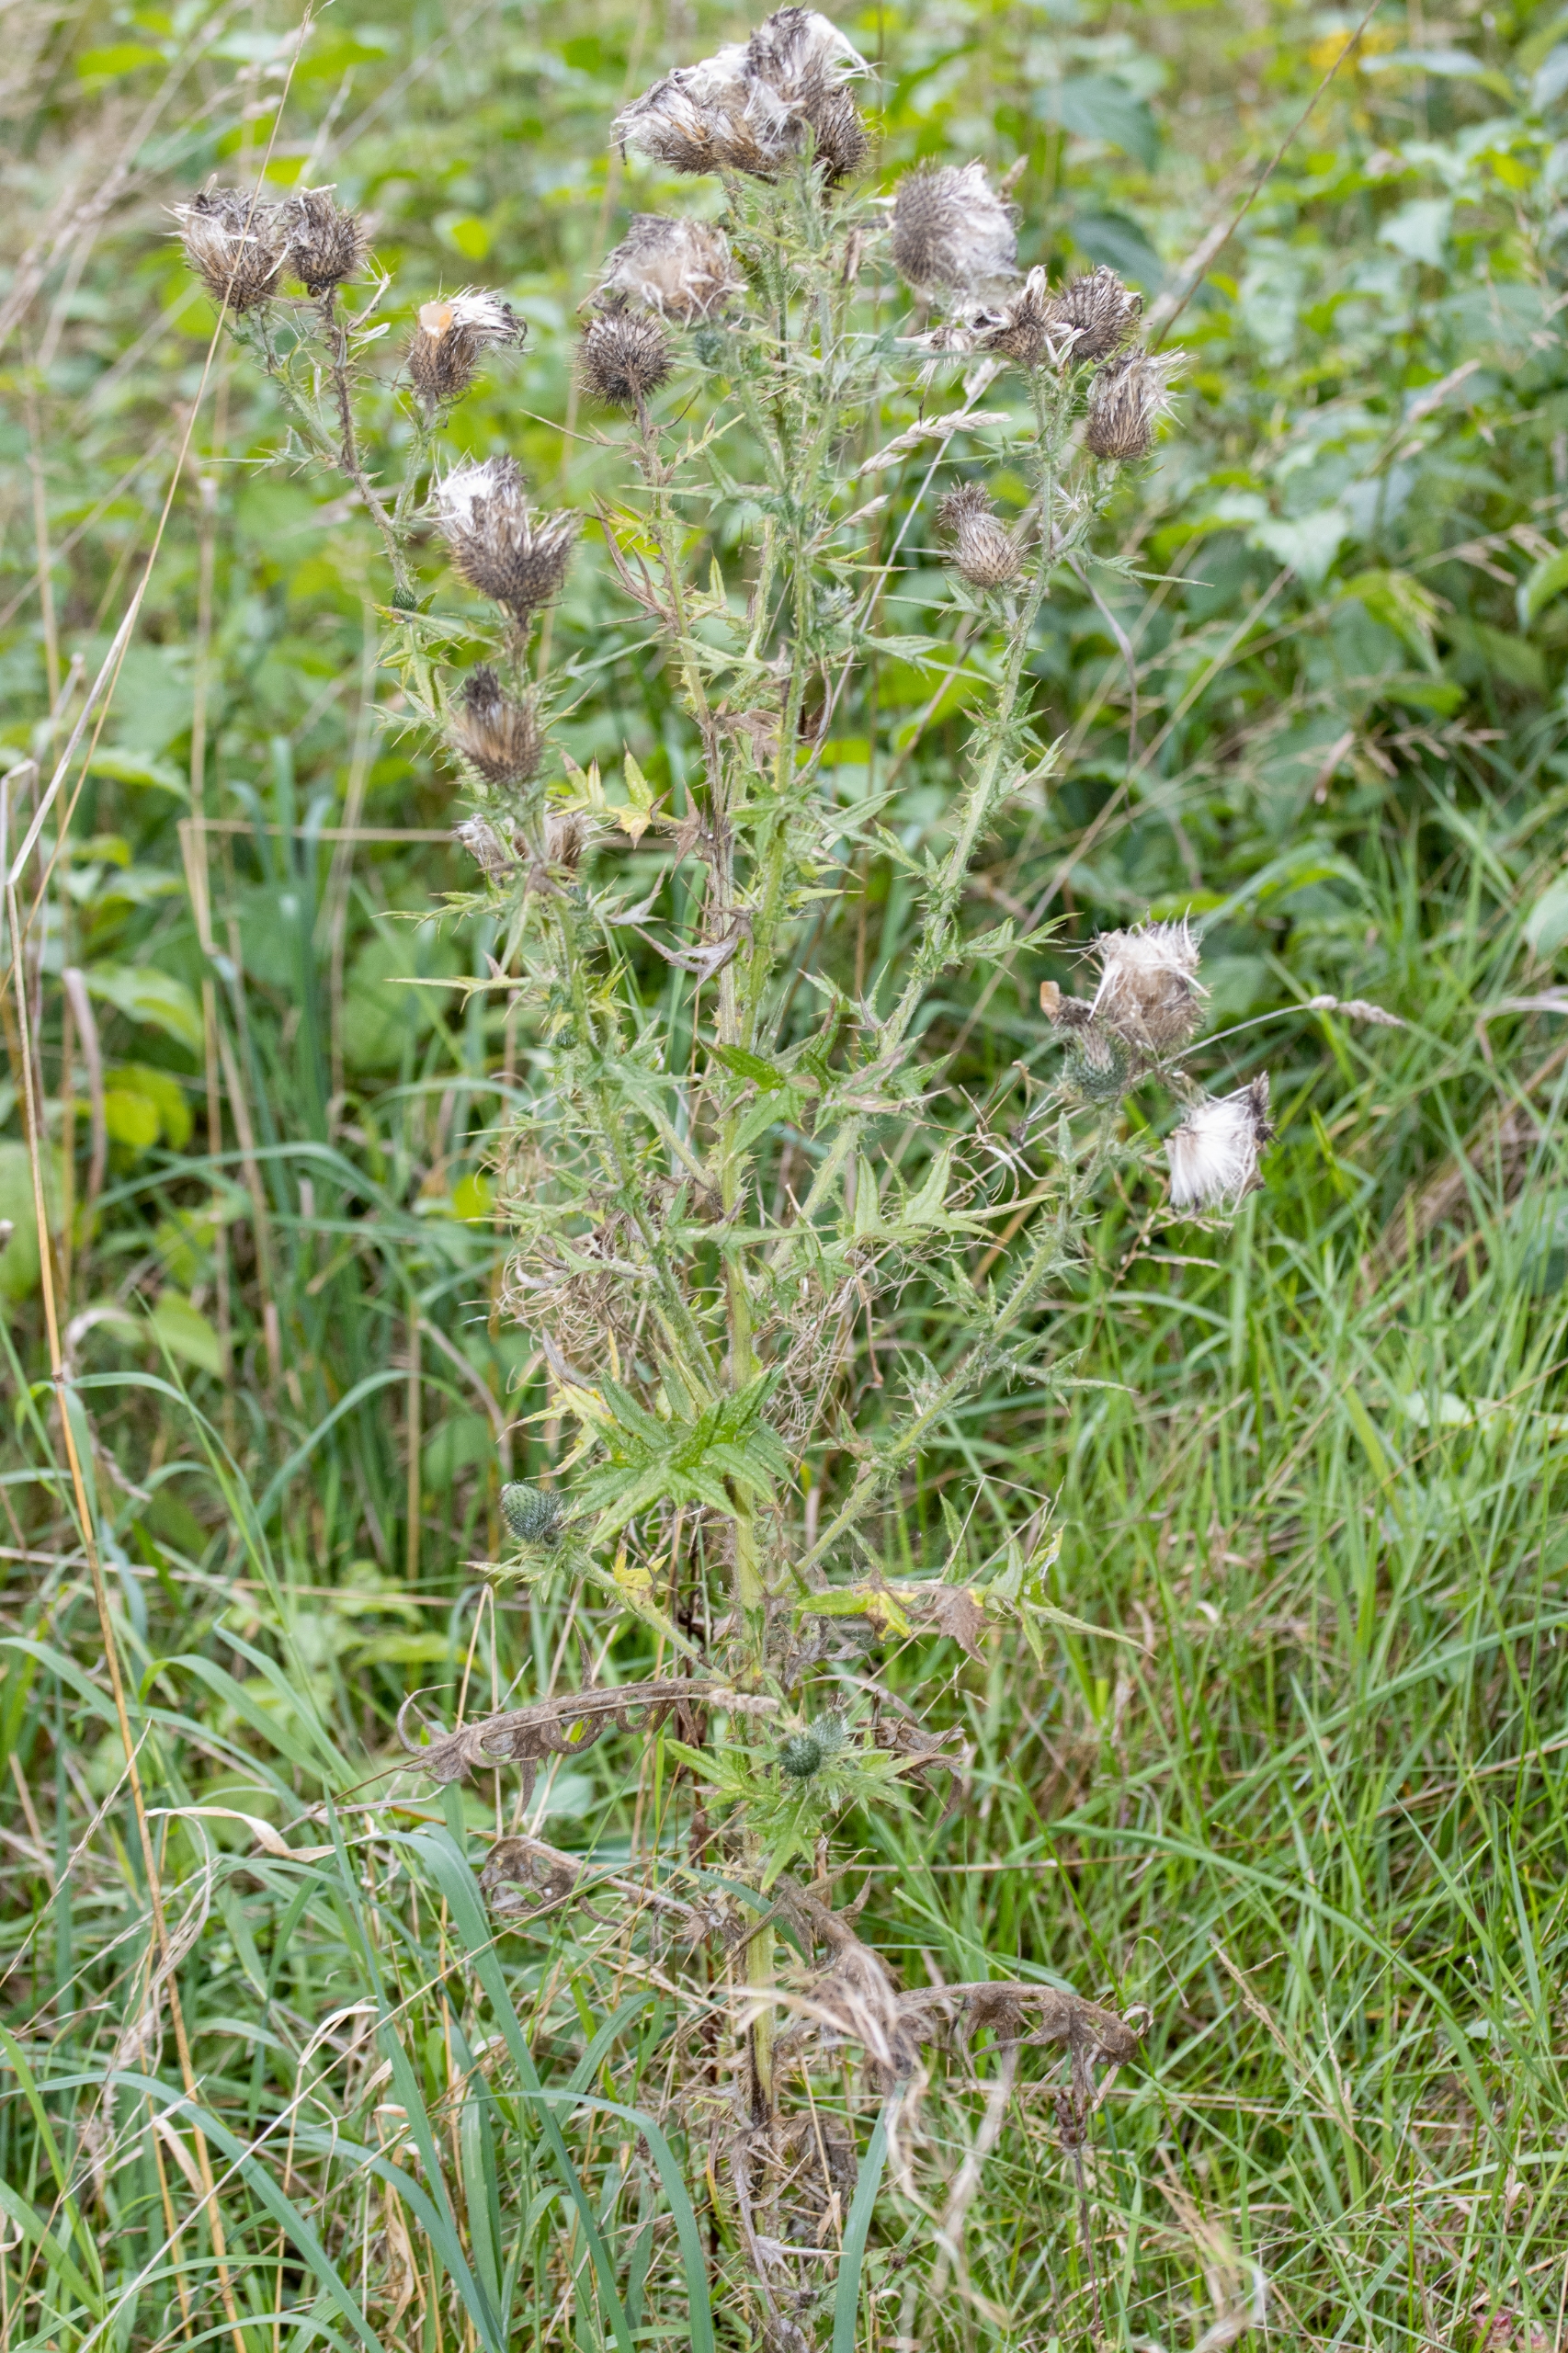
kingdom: Plantae
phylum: Tracheophyta
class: Magnoliopsida
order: Asterales
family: Asteraceae
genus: Cirsium
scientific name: Cirsium vulgare
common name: Horse-tidsel
